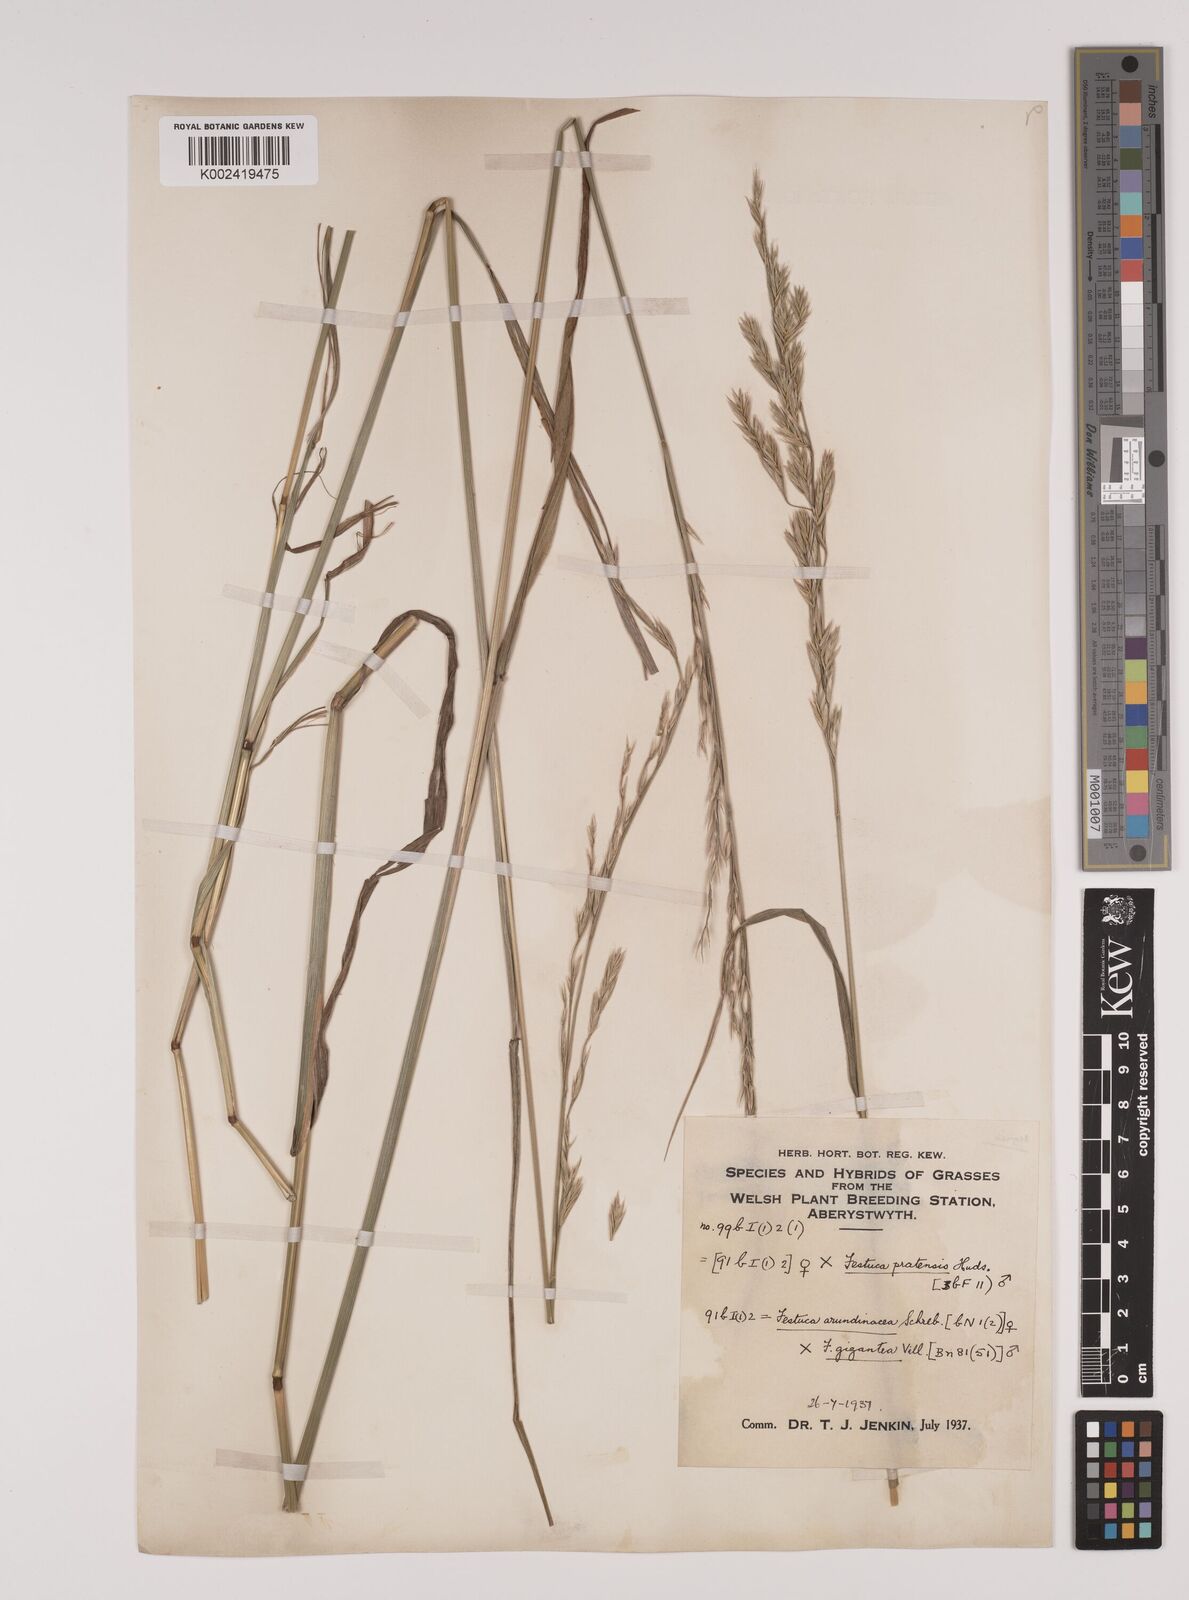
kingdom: Plantae
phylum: Tracheophyta
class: Liliopsida
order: Poales
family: Poaceae
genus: Lolium
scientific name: Lolium giganteum
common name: Giant fescue
